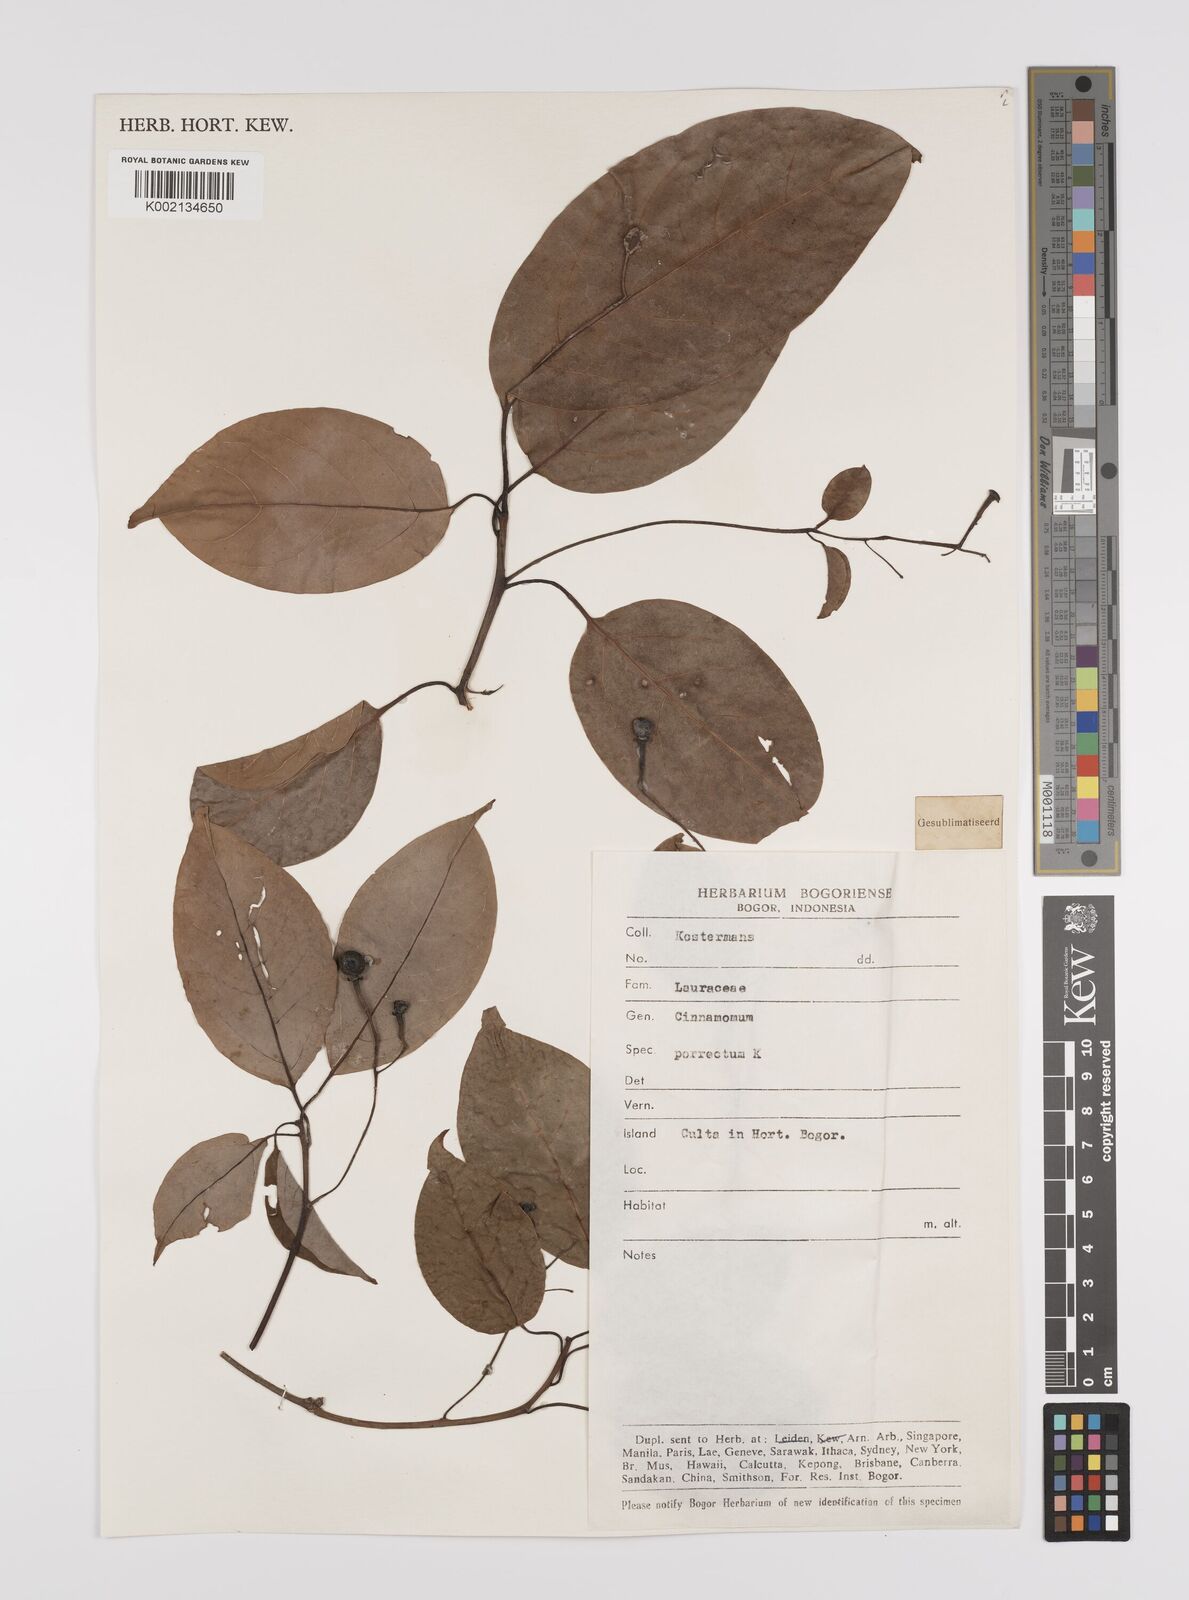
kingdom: Plantae
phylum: Tracheophyta
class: Magnoliopsida
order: Laurales
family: Lauraceae
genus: Cinnamomum
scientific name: Cinnamomum parthenoxylon
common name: Martaban camphor wood
